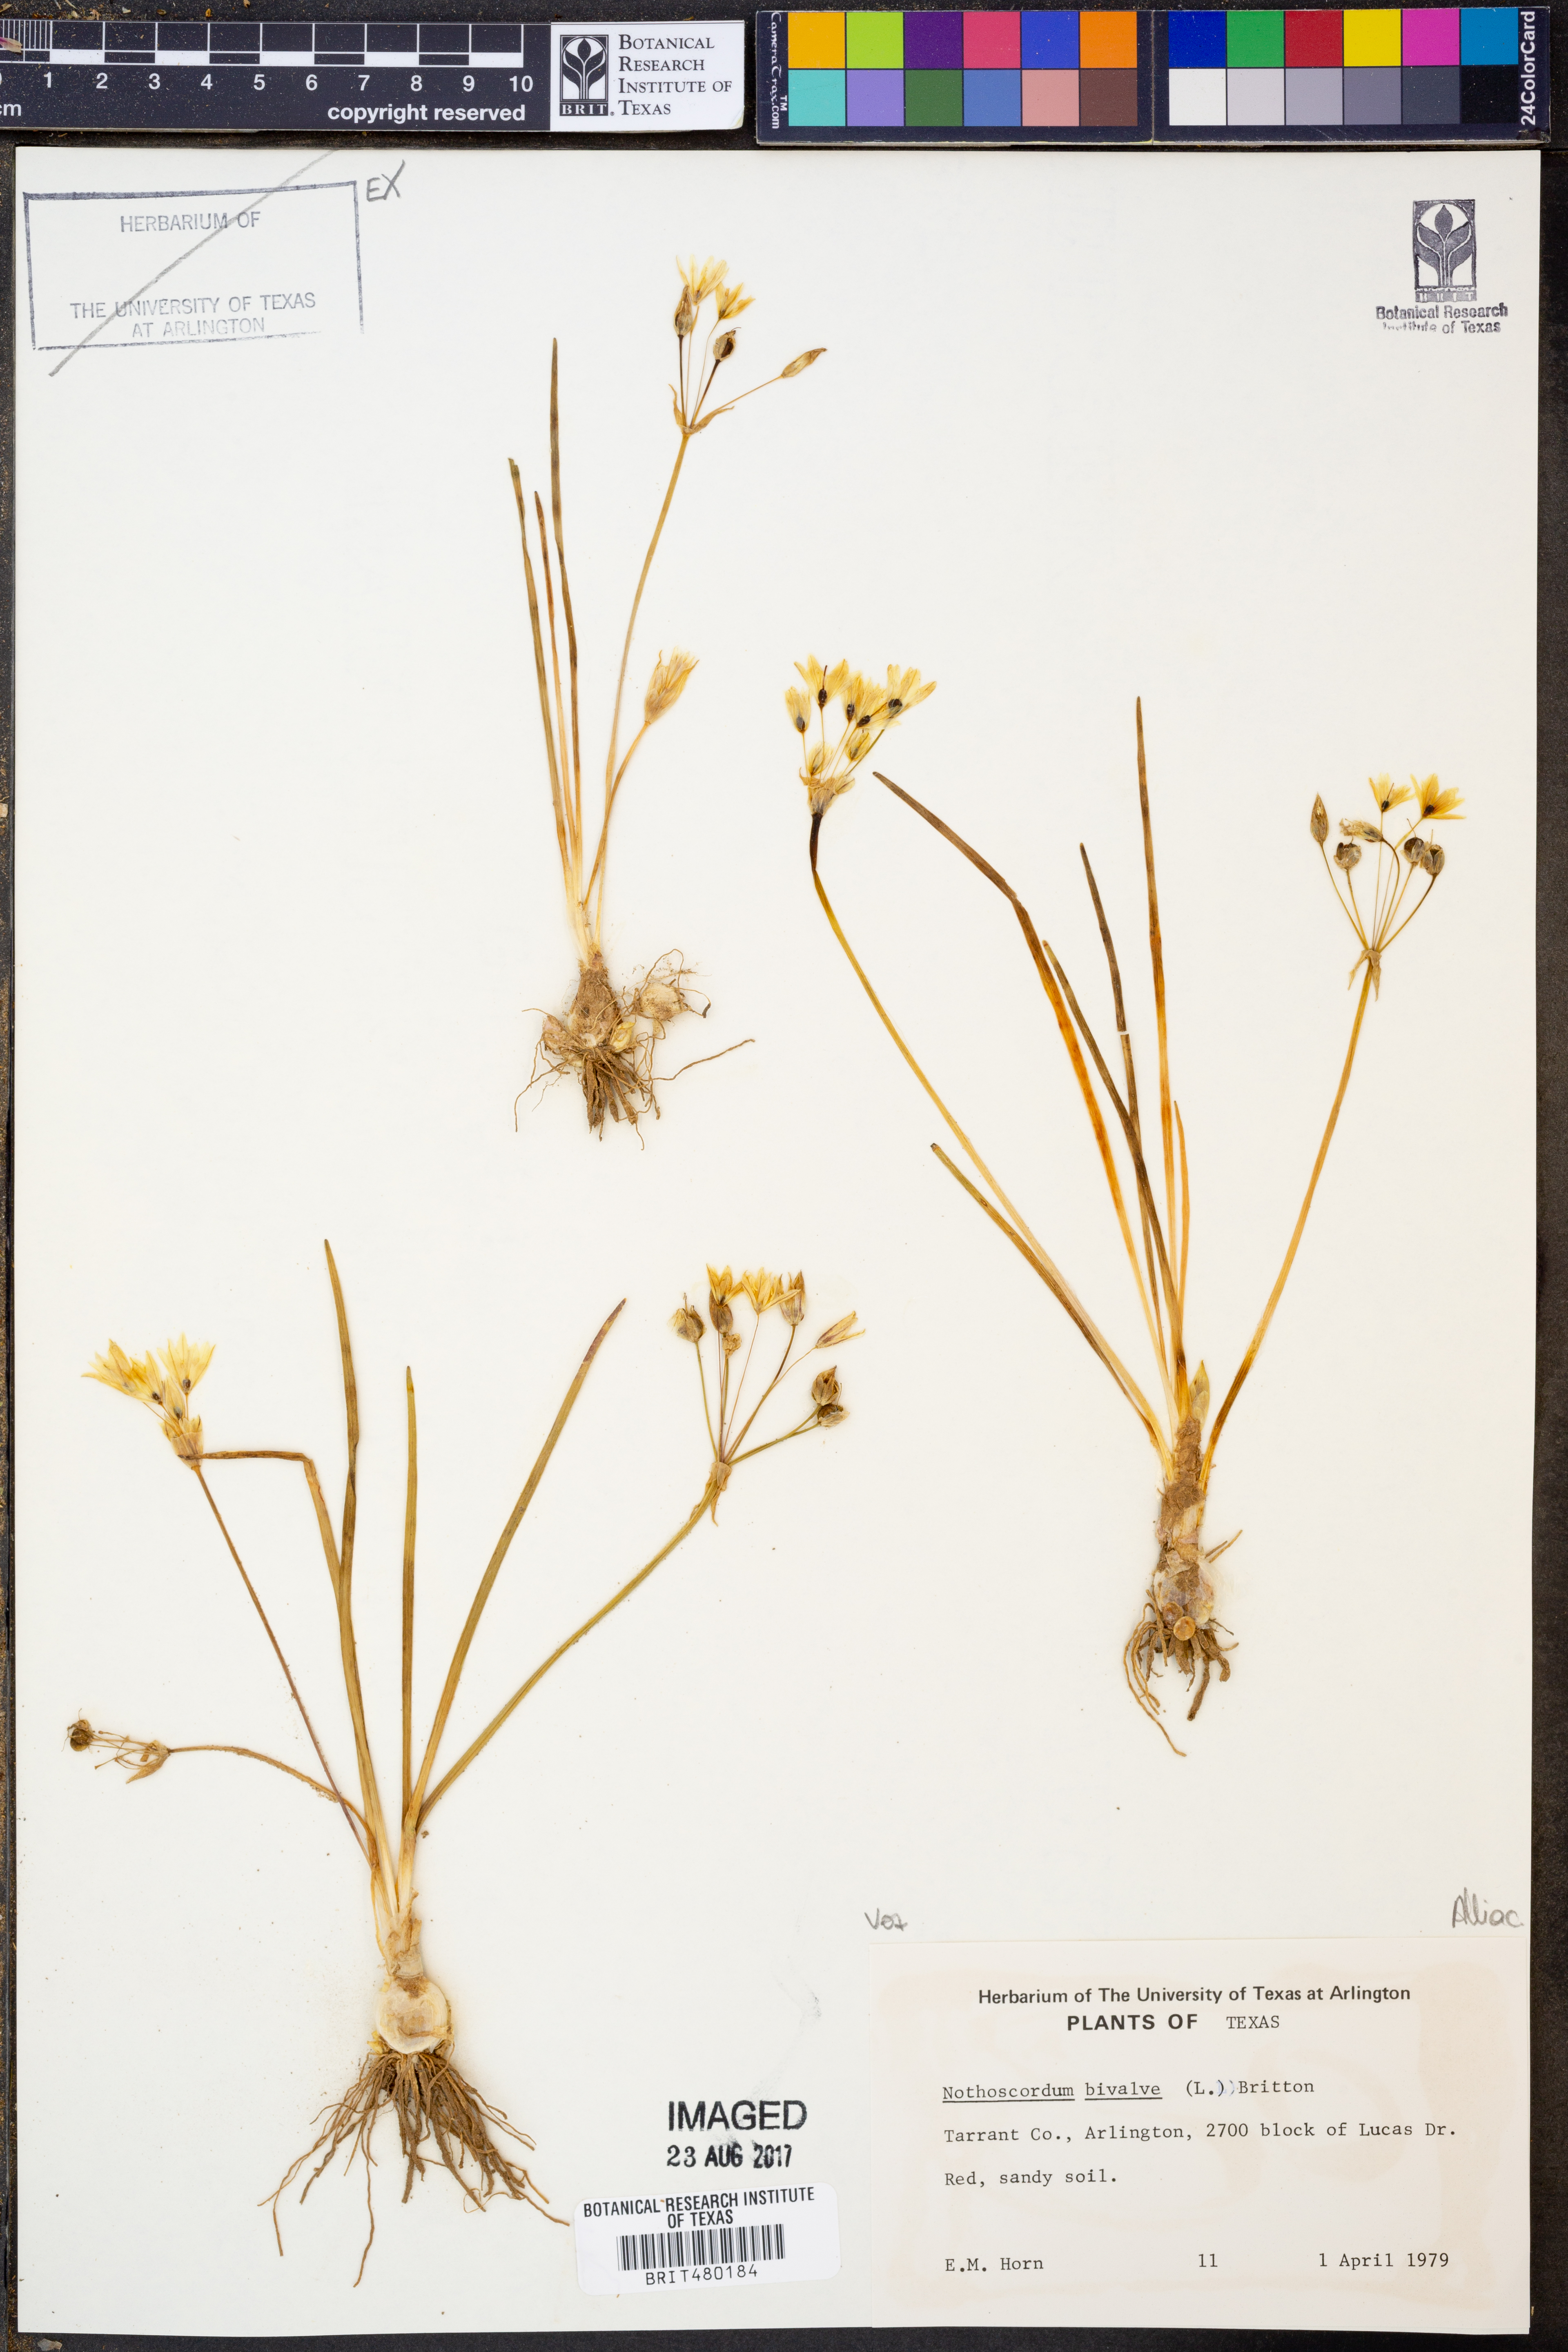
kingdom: Plantae
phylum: Tracheophyta
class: Liliopsida
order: Asparagales
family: Amaryllidaceae
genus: Nothoscordum
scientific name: Nothoscordum bivalve
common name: Crow-poison
